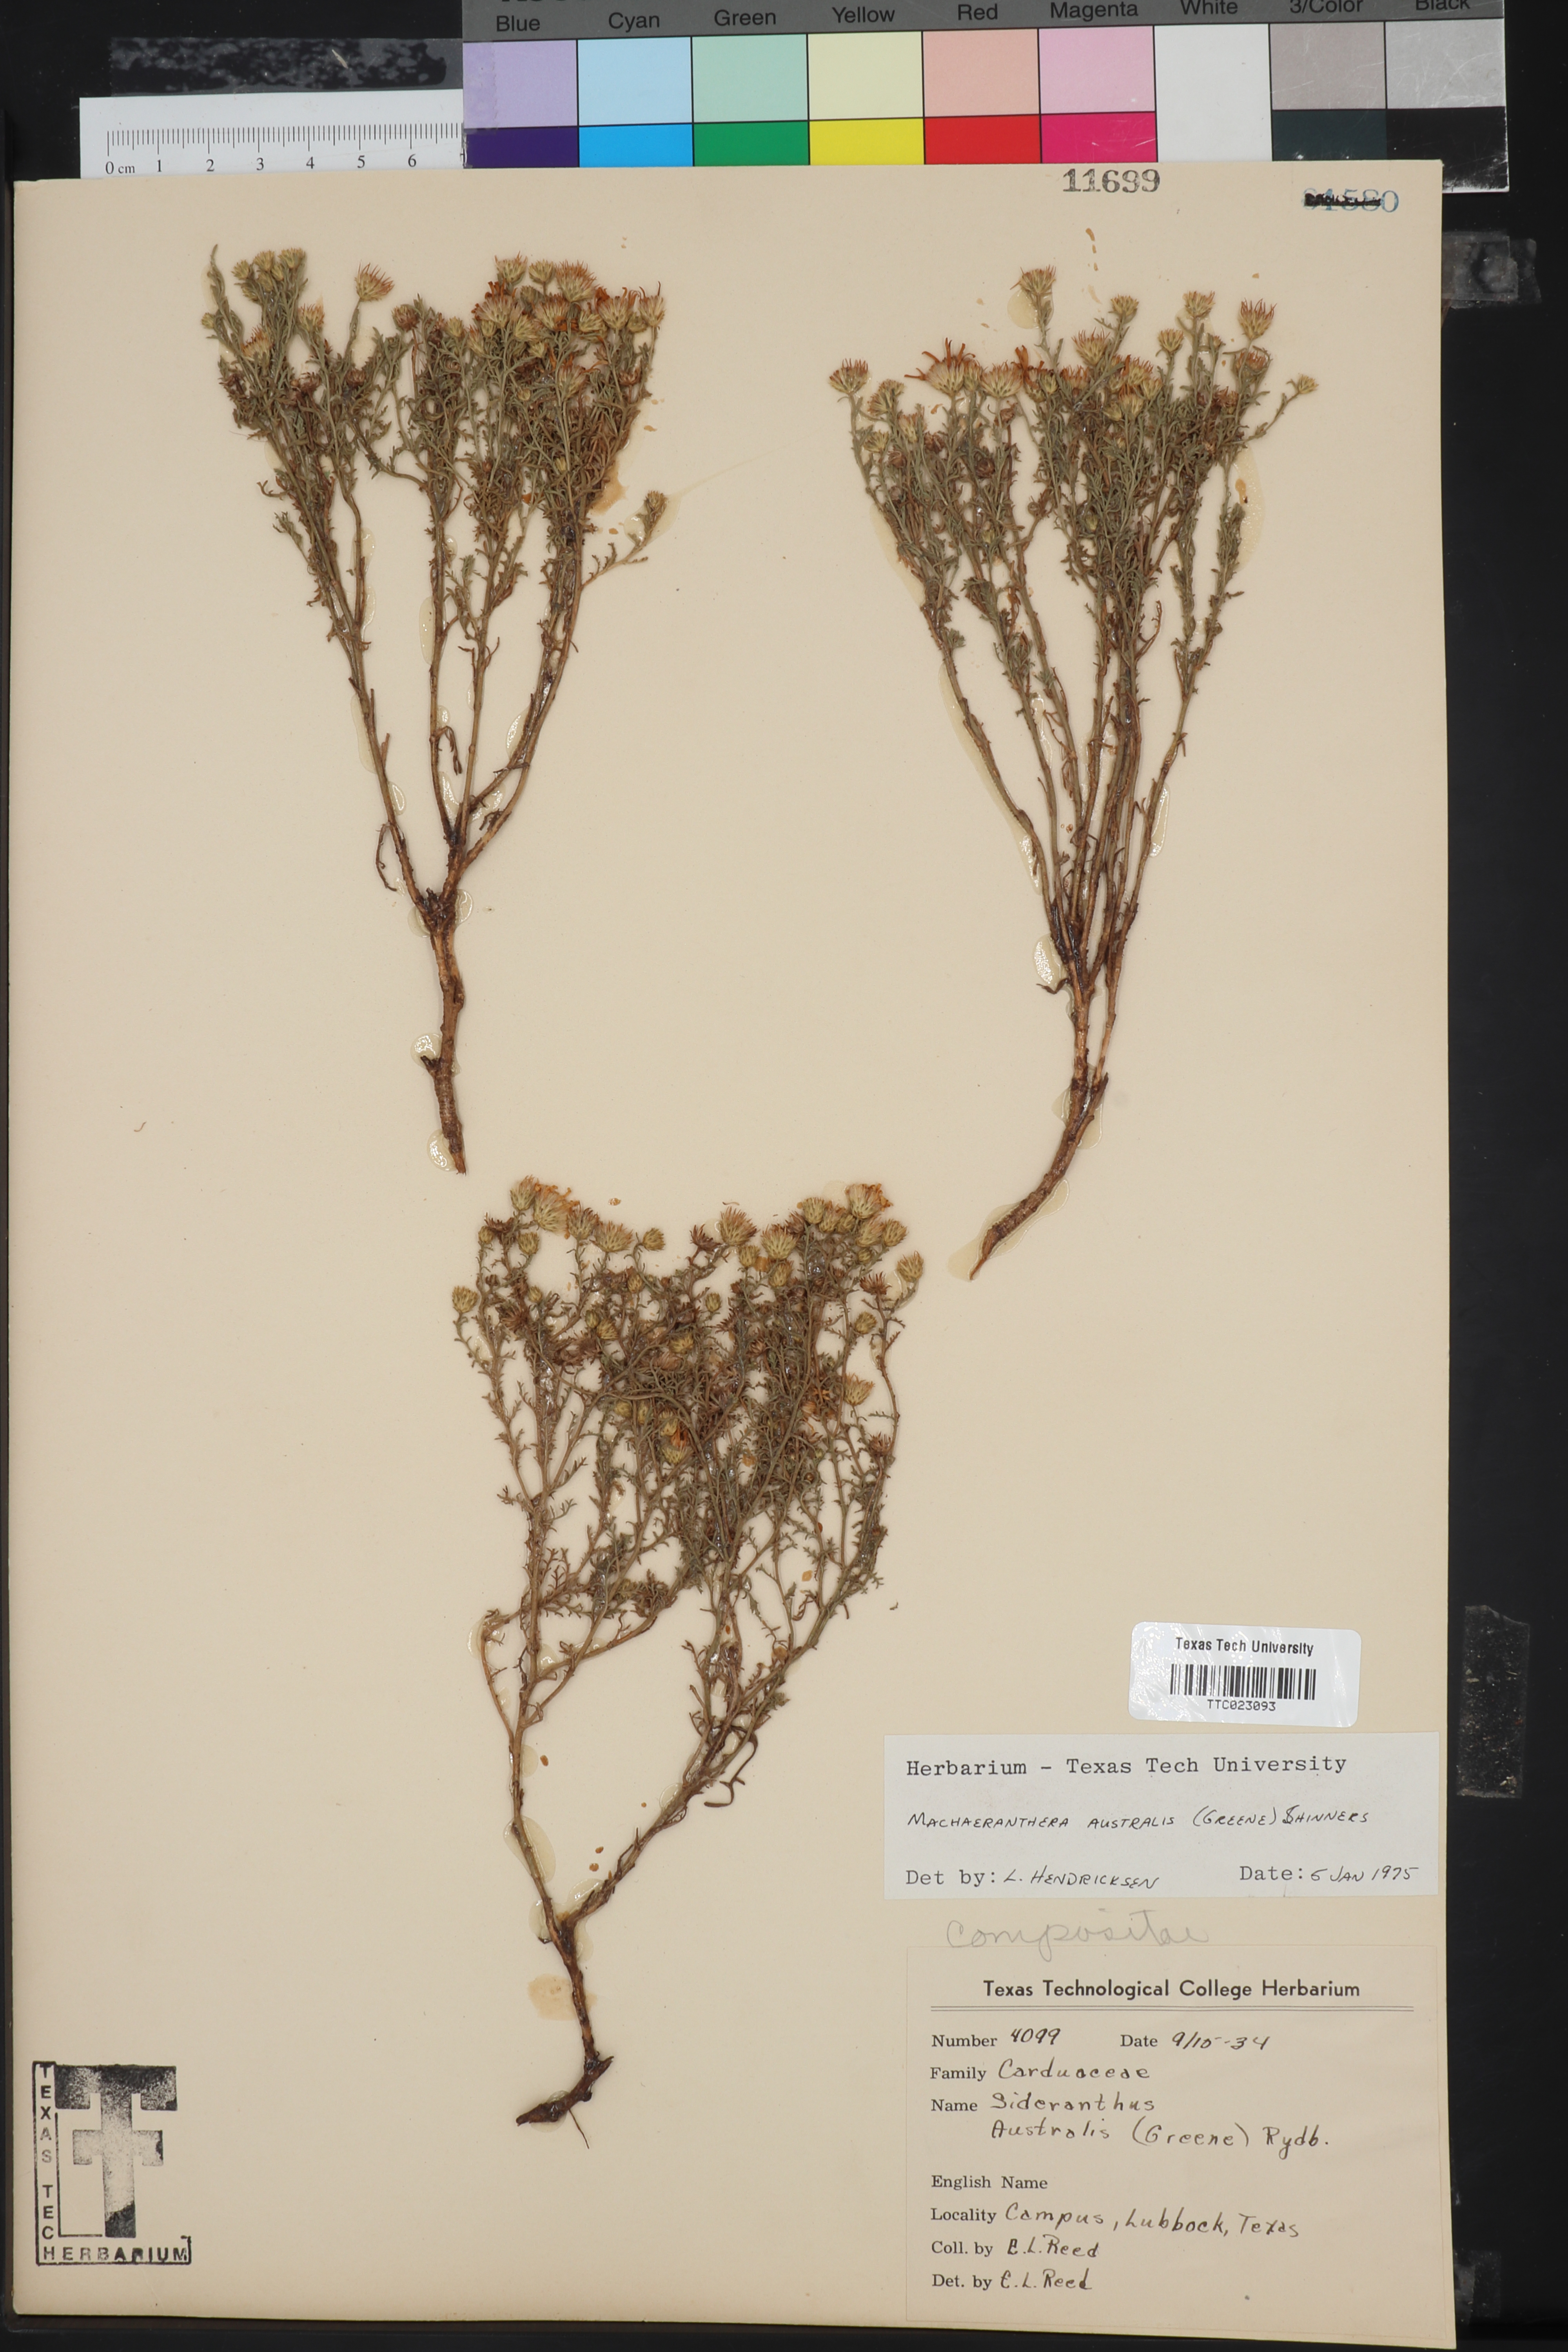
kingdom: Plantae
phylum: Tracheophyta
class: Magnoliopsida
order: Asterales
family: Asteraceae
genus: Xanthisma
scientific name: Xanthisma spinulosum
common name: Spiny goldenweed
